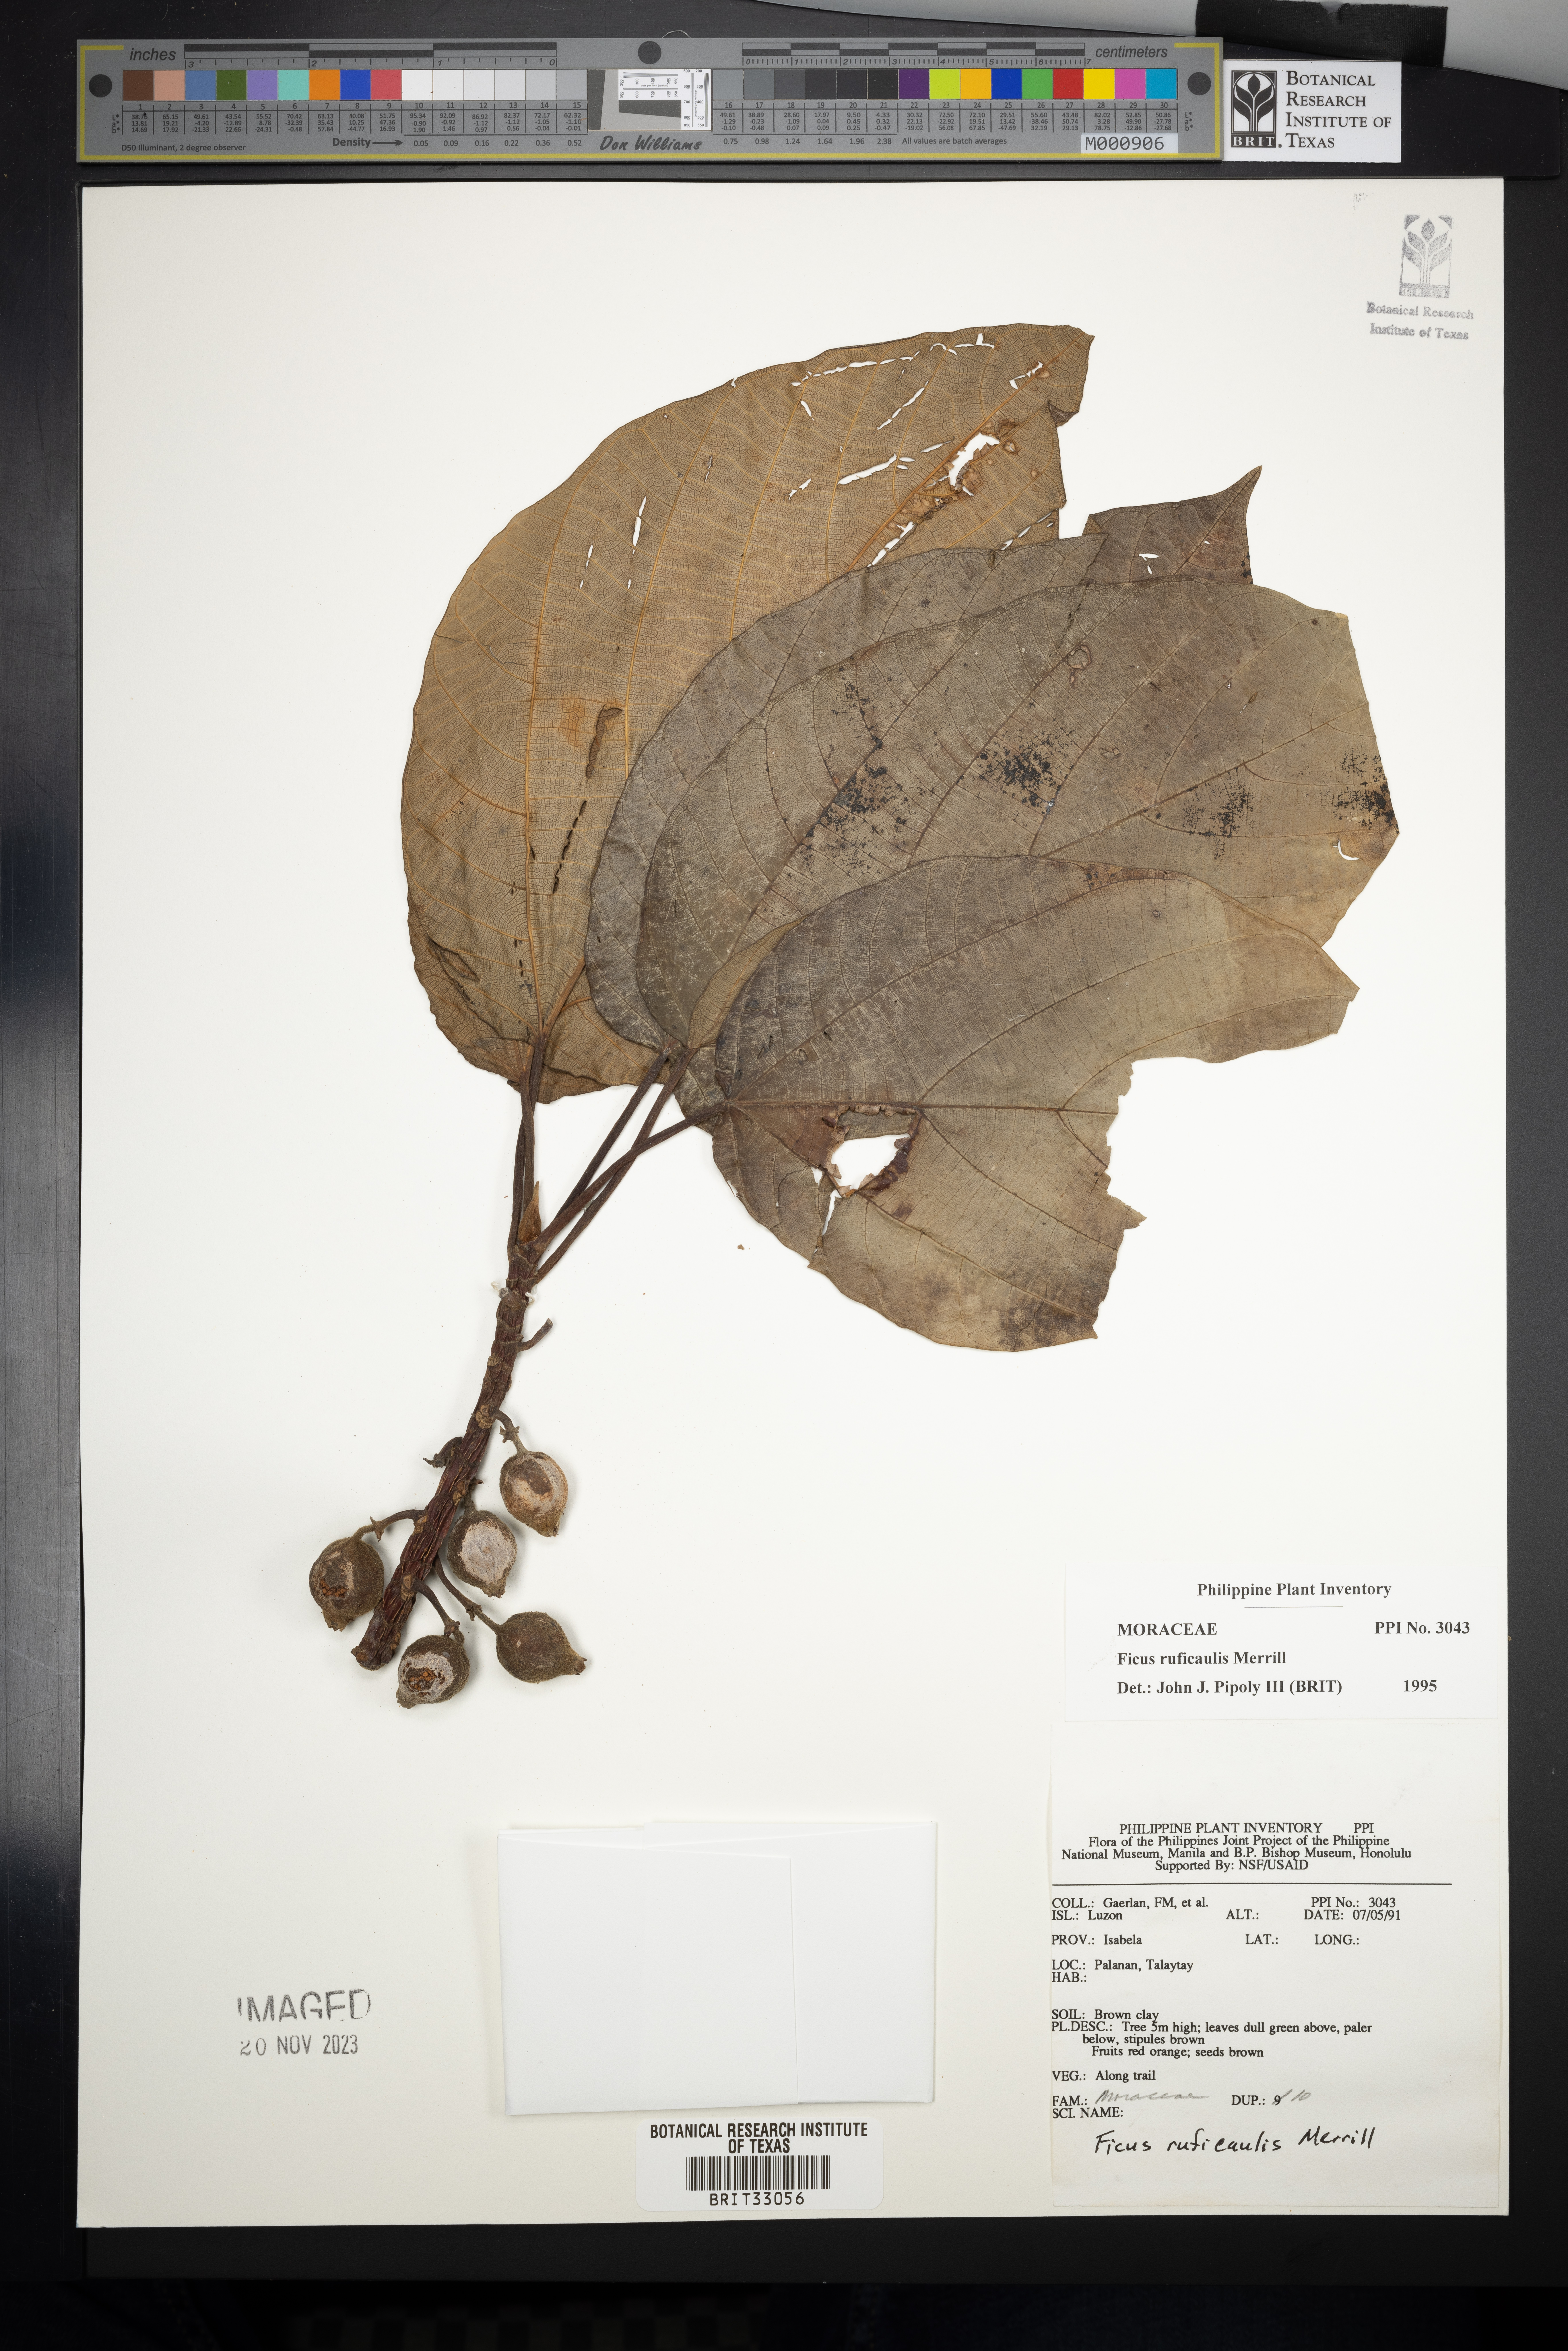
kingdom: Plantae
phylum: Tracheophyta
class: Magnoliopsida
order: Rosales
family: Moraceae
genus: Ficus
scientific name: Ficus ruficaulis
